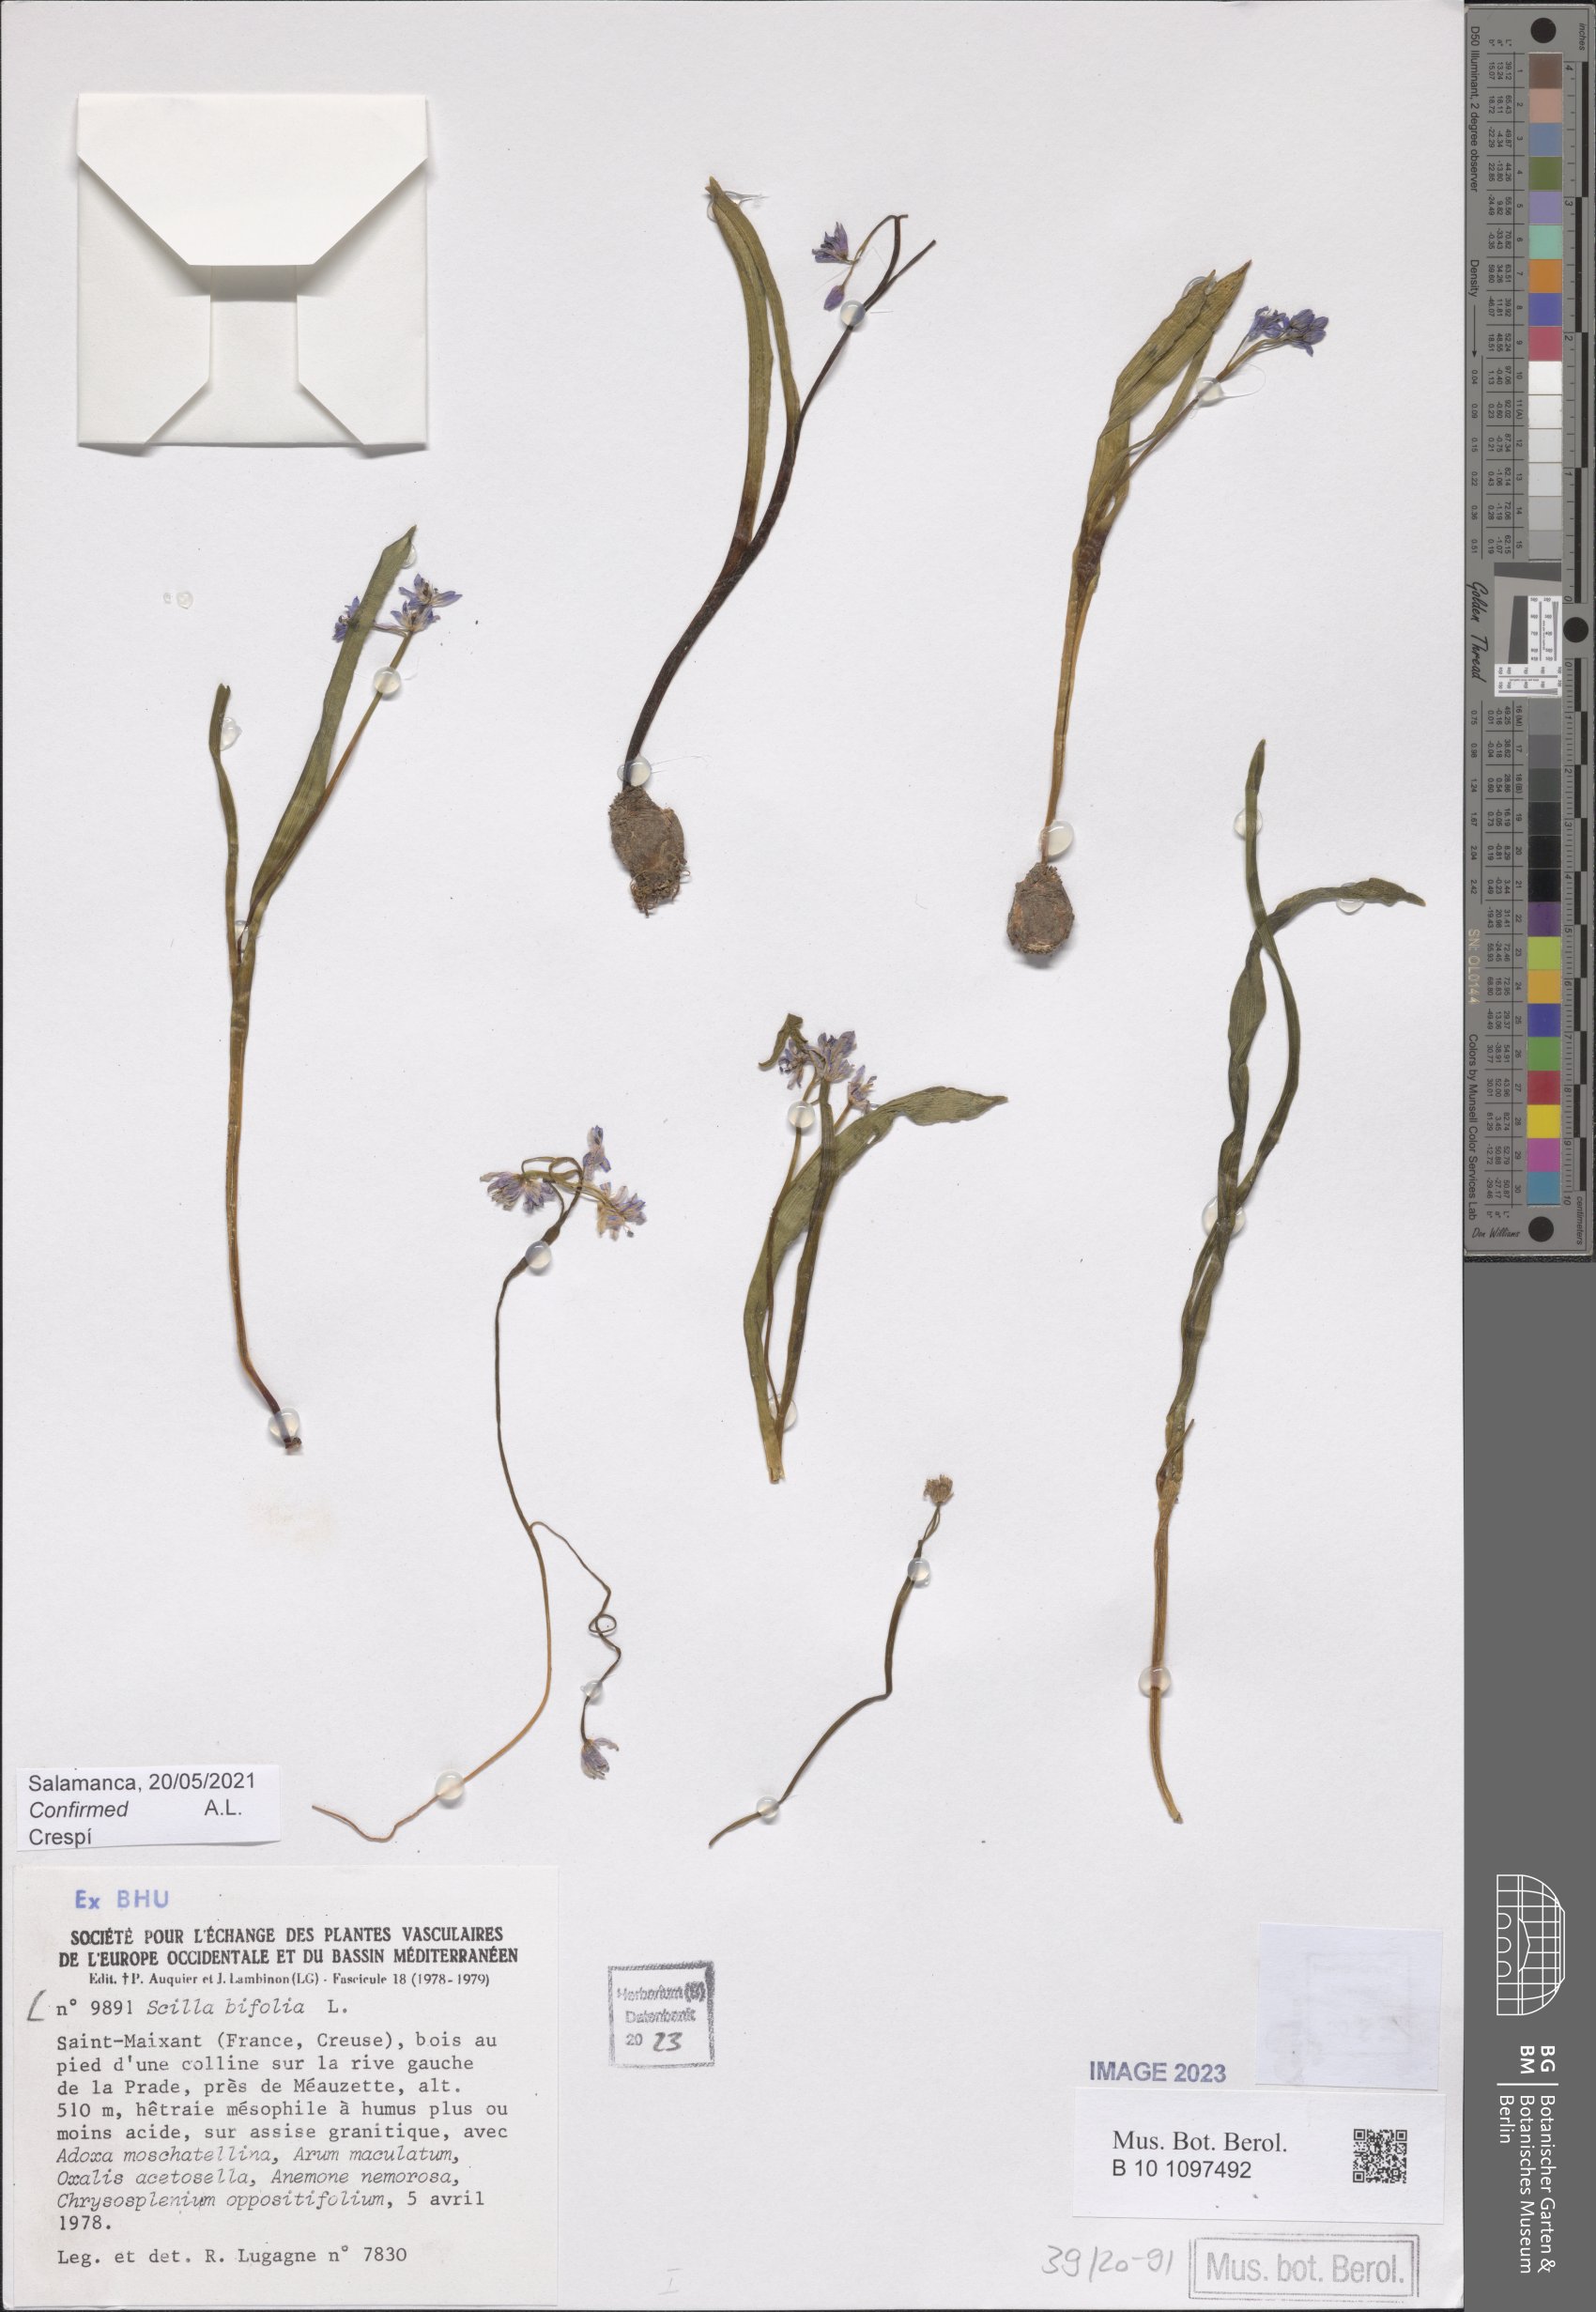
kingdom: Plantae
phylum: Tracheophyta
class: Liliopsida
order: Asparagales
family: Asparagaceae
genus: Scilla
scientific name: Scilla bifolia
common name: Alpine squill
